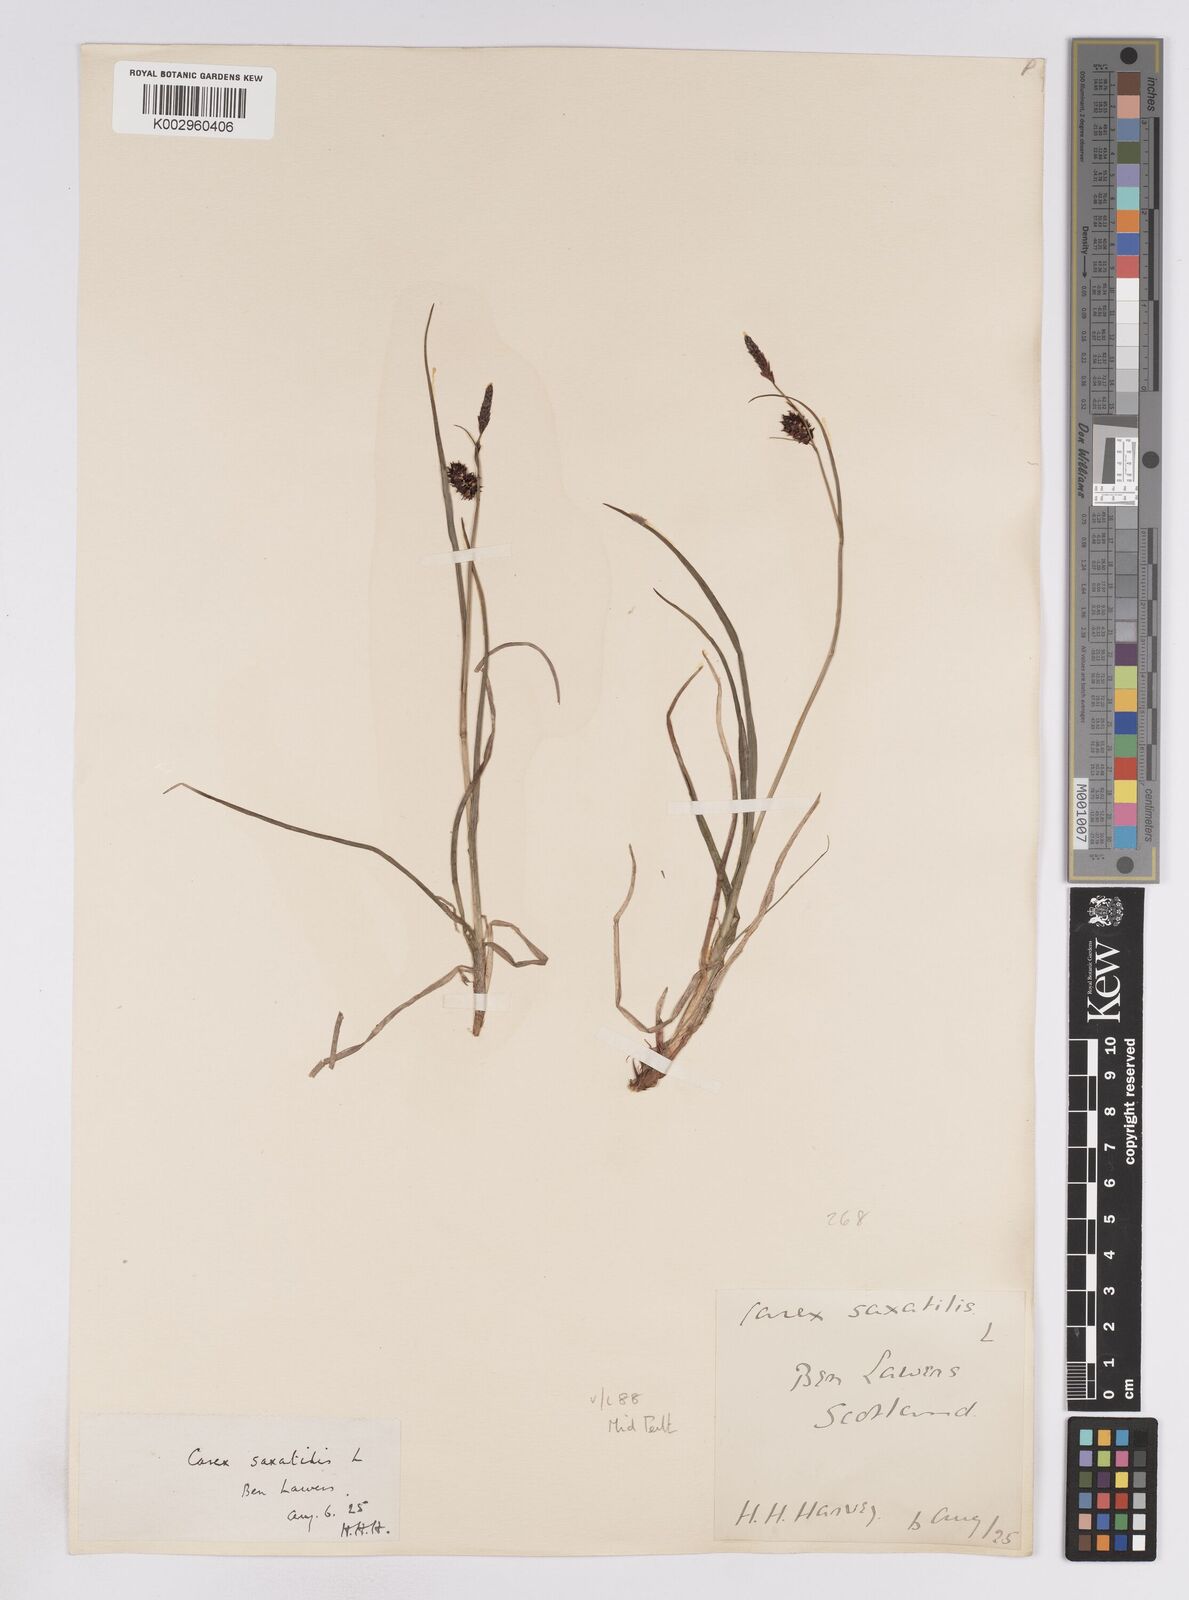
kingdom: Plantae
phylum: Tracheophyta
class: Liliopsida
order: Poales
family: Cyperaceae
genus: Carex
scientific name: Carex saxatilis
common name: Russet sedge
